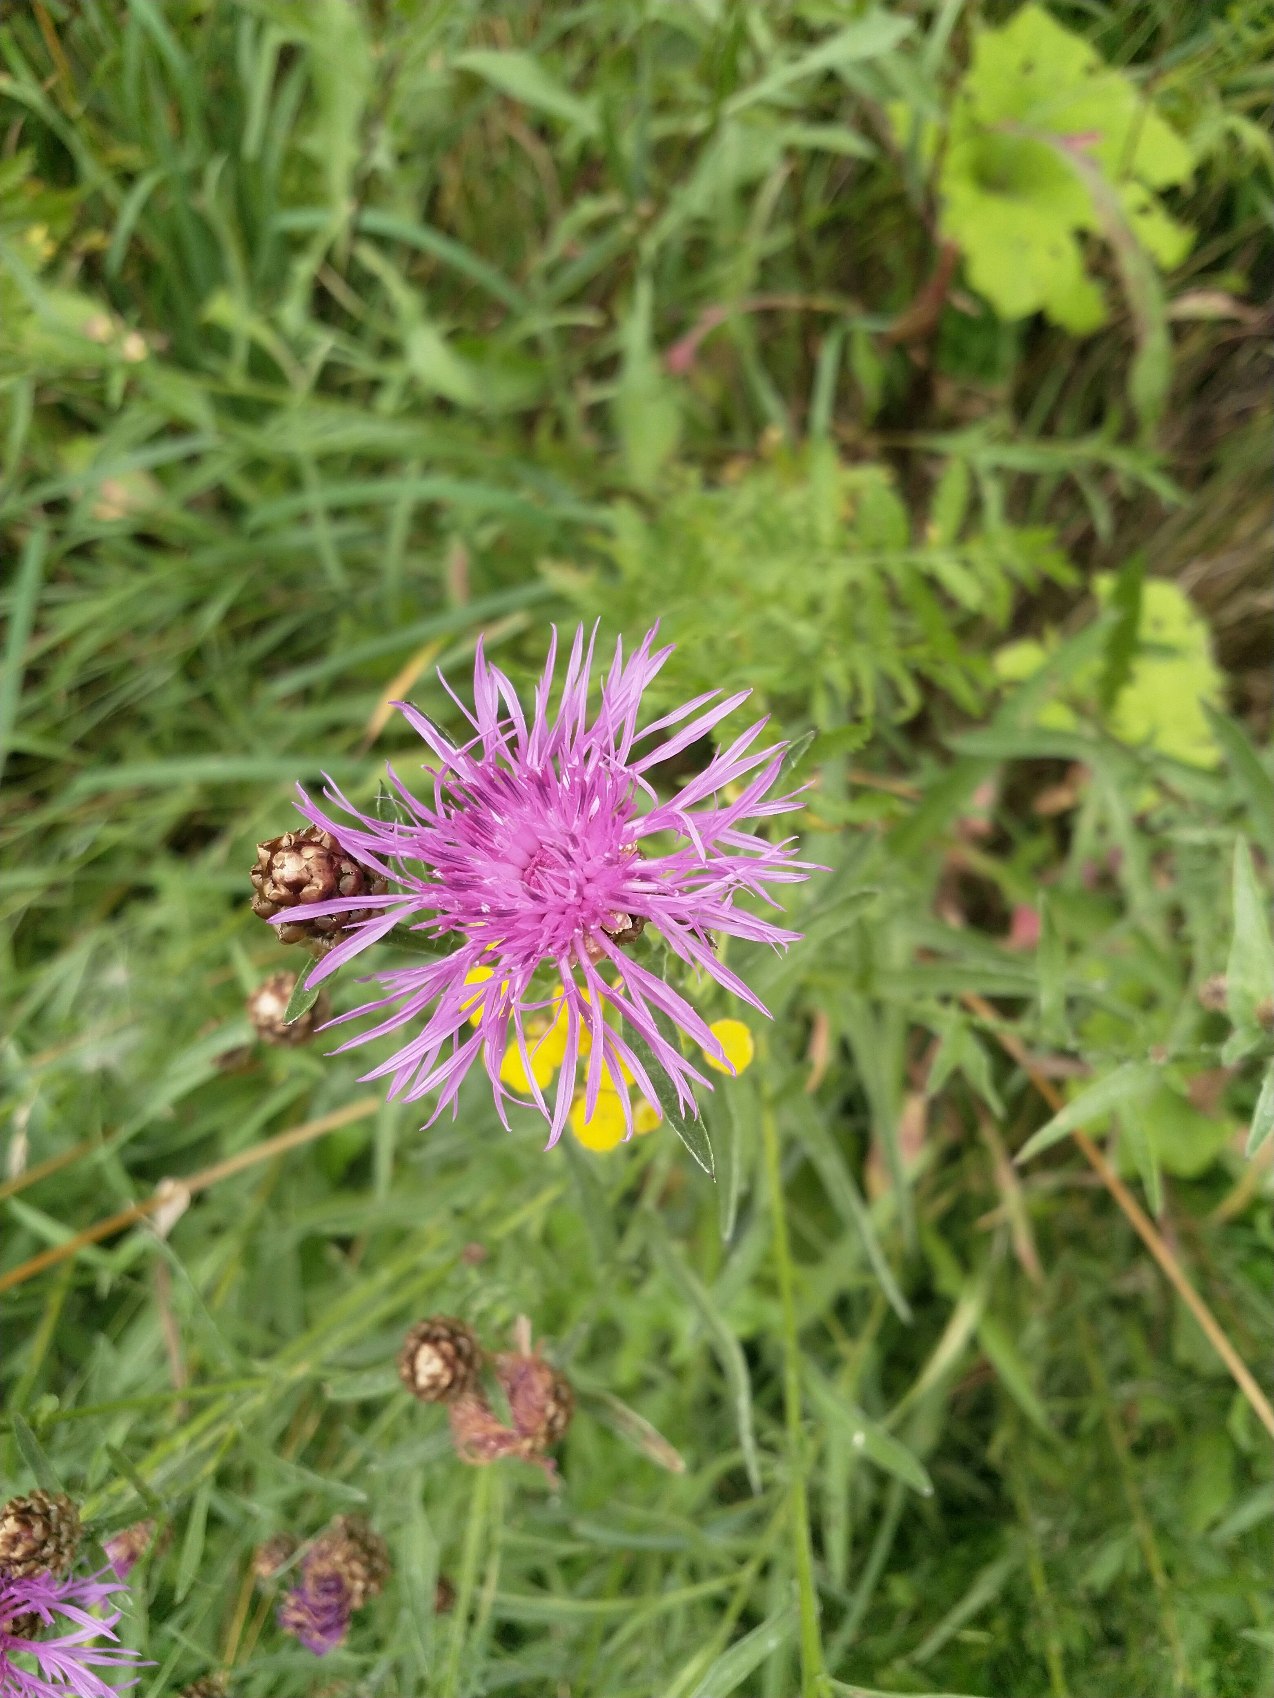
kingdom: Plantae
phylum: Tracheophyta
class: Magnoliopsida
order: Asterales
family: Asteraceae
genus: Centaurea
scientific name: Centaurea jacea
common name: Almindelig knopurt
